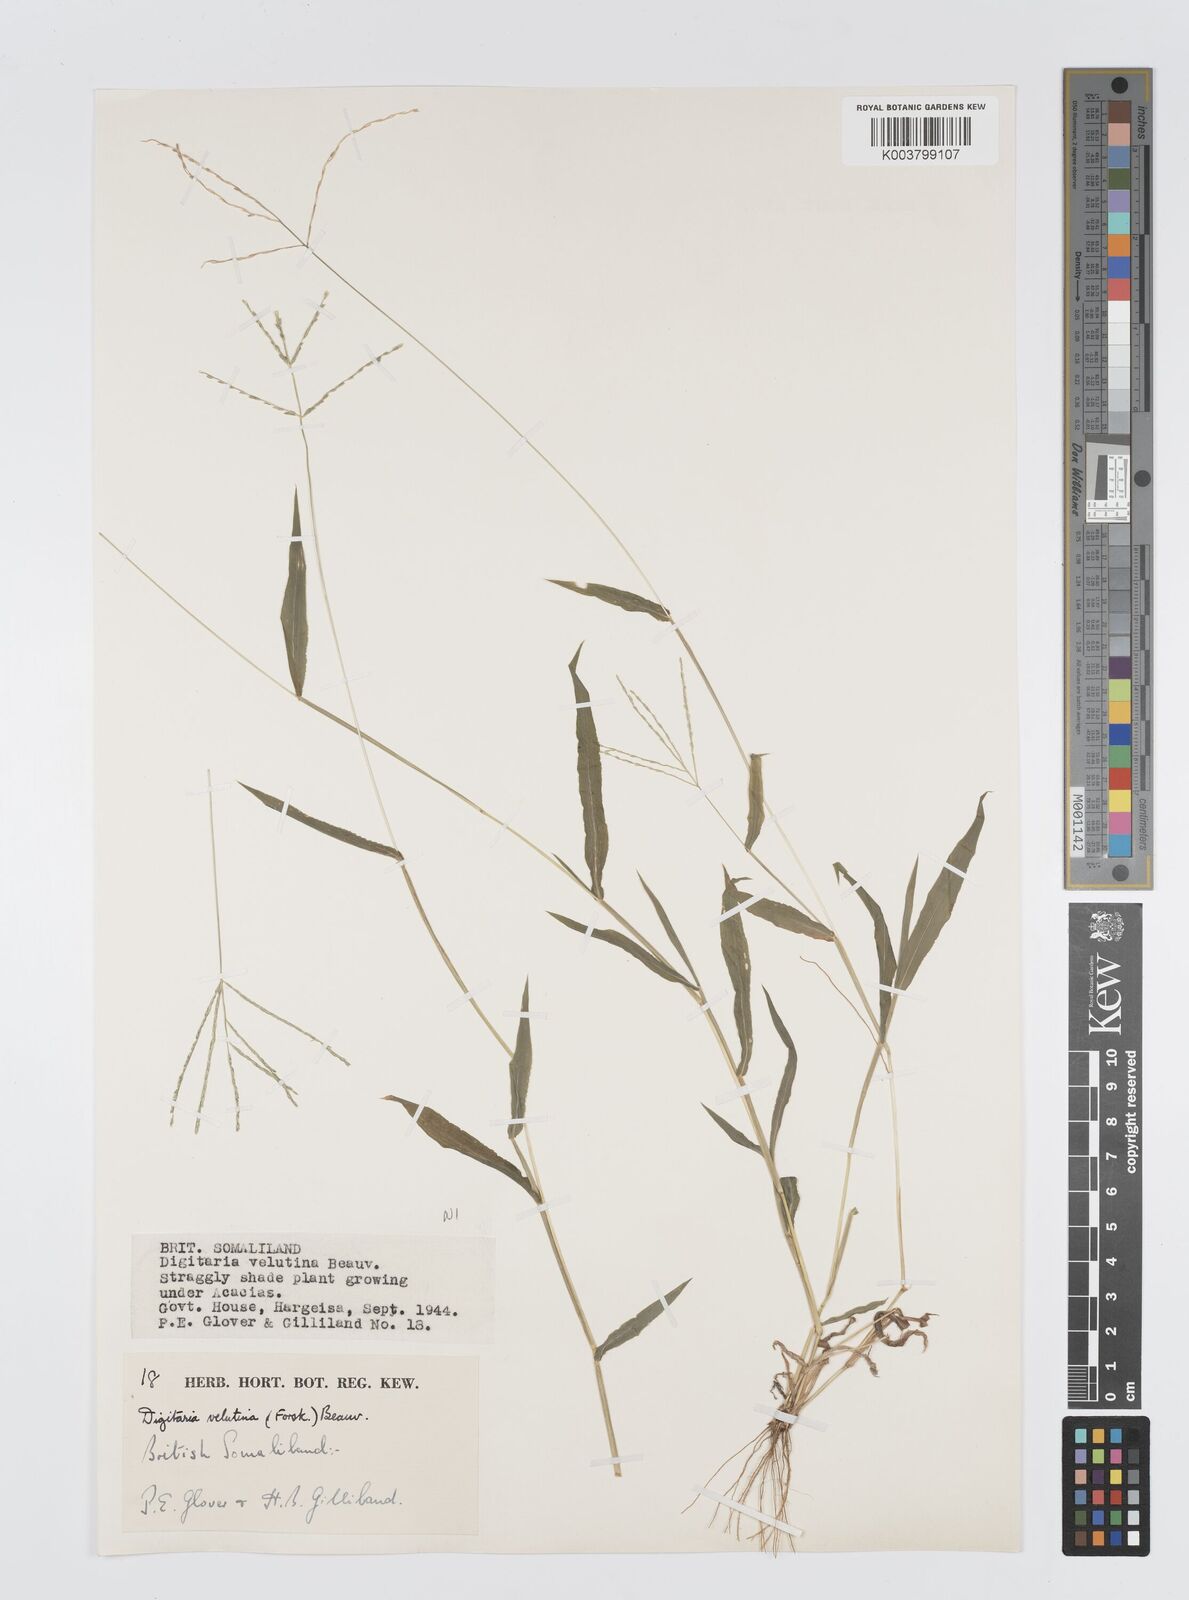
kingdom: Plantae
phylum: Tracheophyta
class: Liliopsida
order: Poales
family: Poaceae
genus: Digitaria
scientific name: Digitaria velutina
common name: Long-plume finger grass
